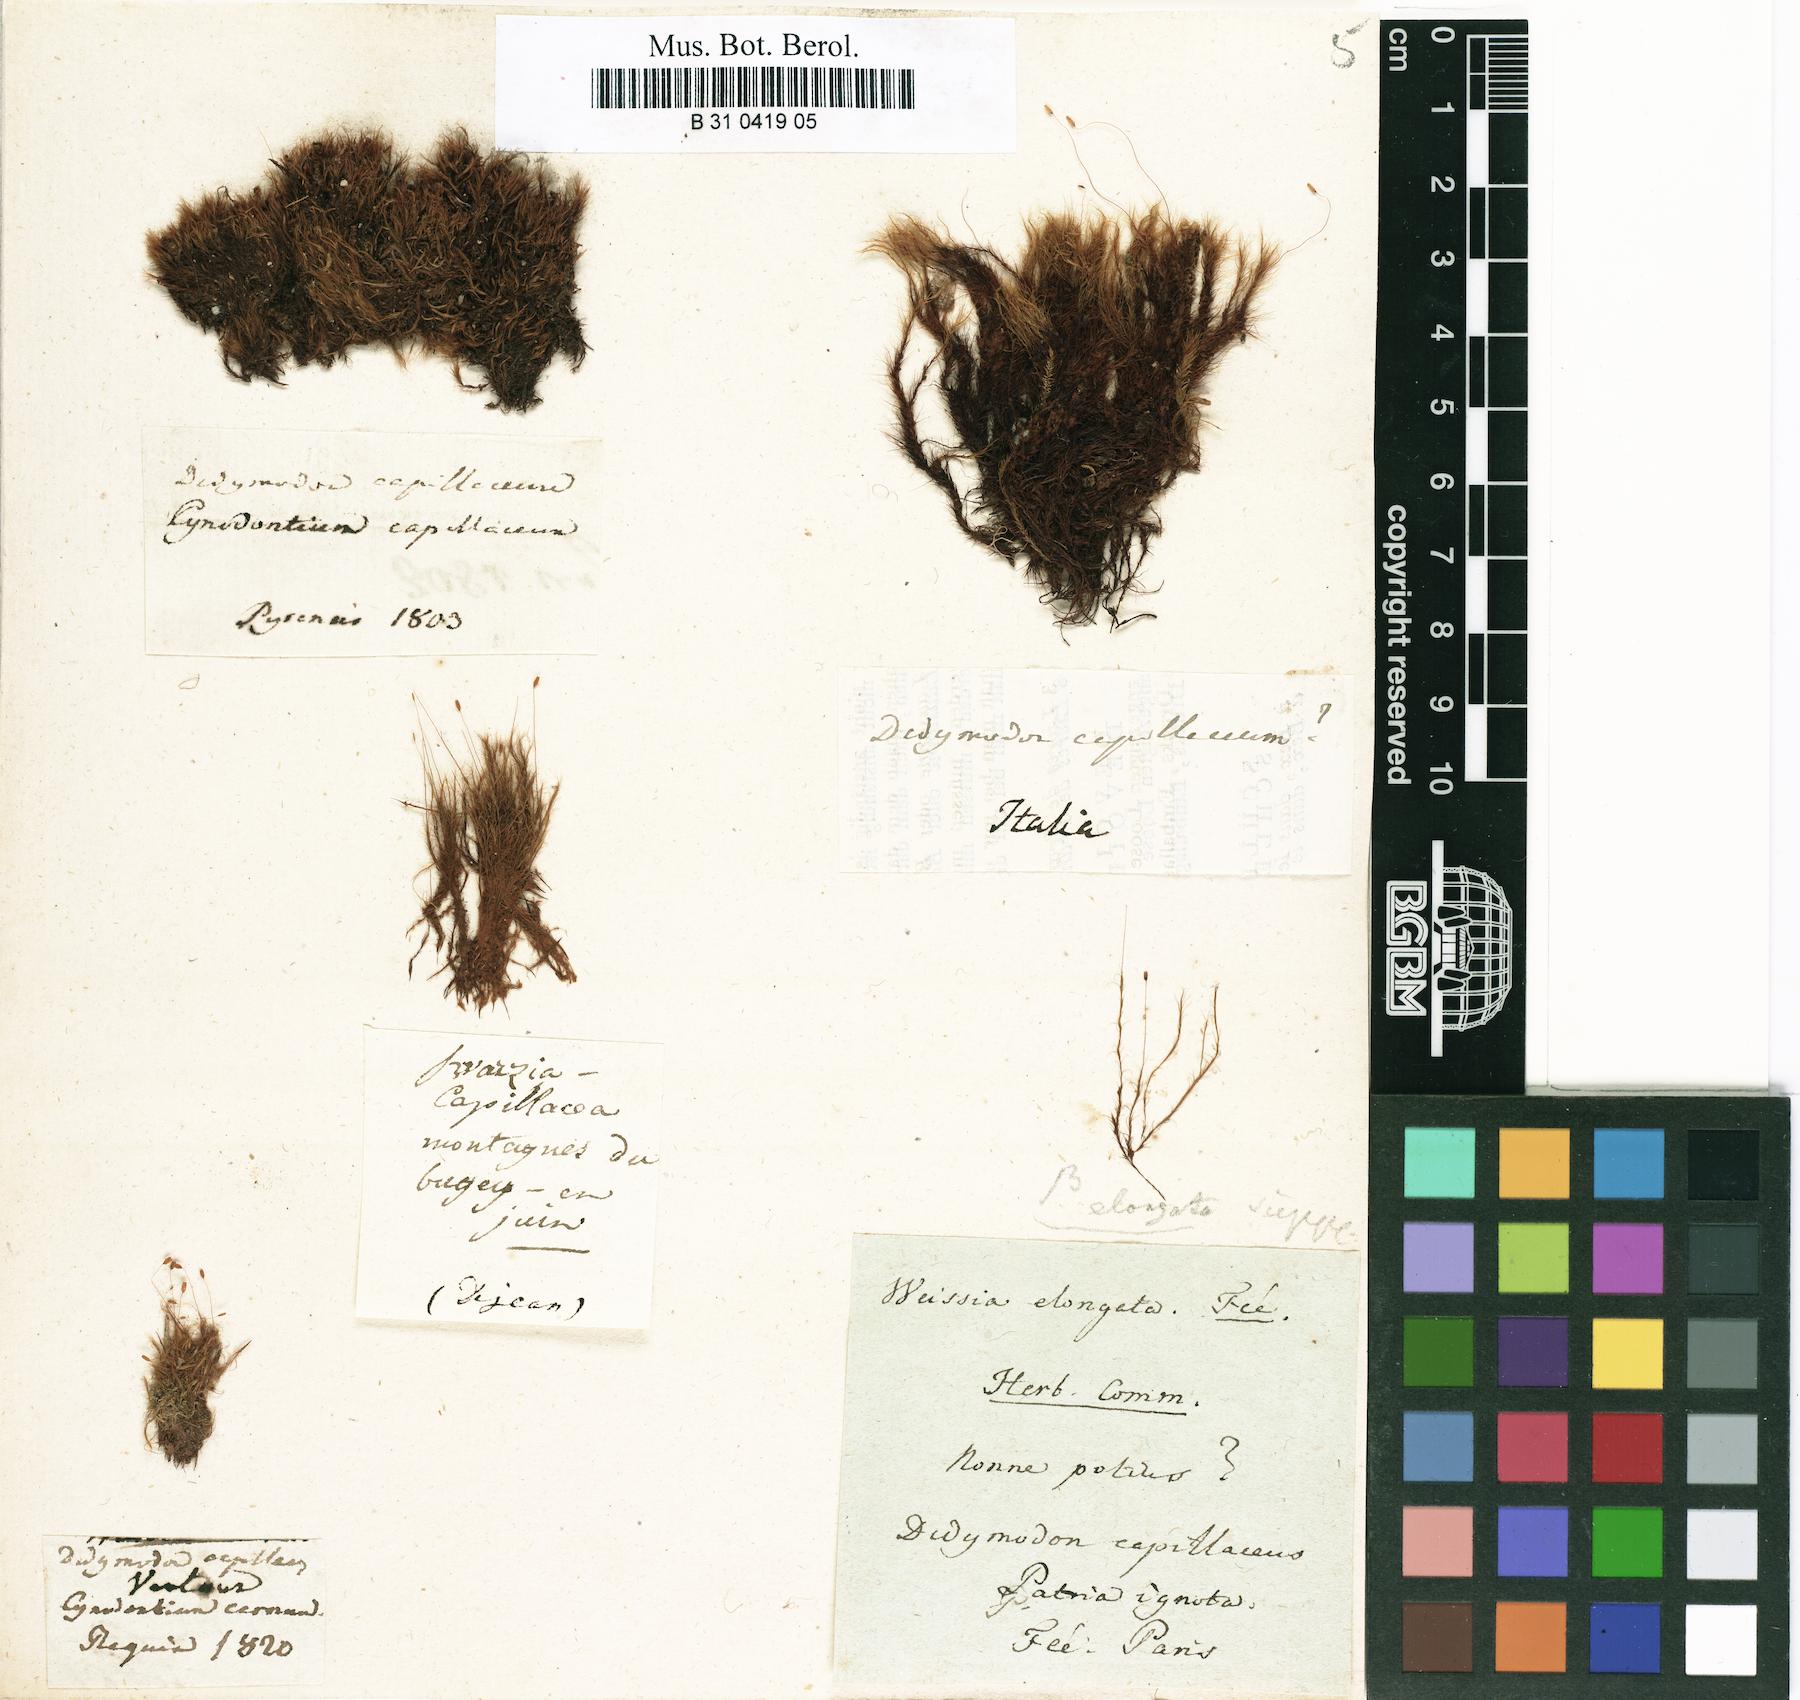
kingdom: Plantae
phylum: Bryophyta
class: Bryopsida
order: Scouleriales
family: Distichiaceae
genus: Distichium
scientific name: Distichium capillaceum
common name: Erect-fruited iris moss
